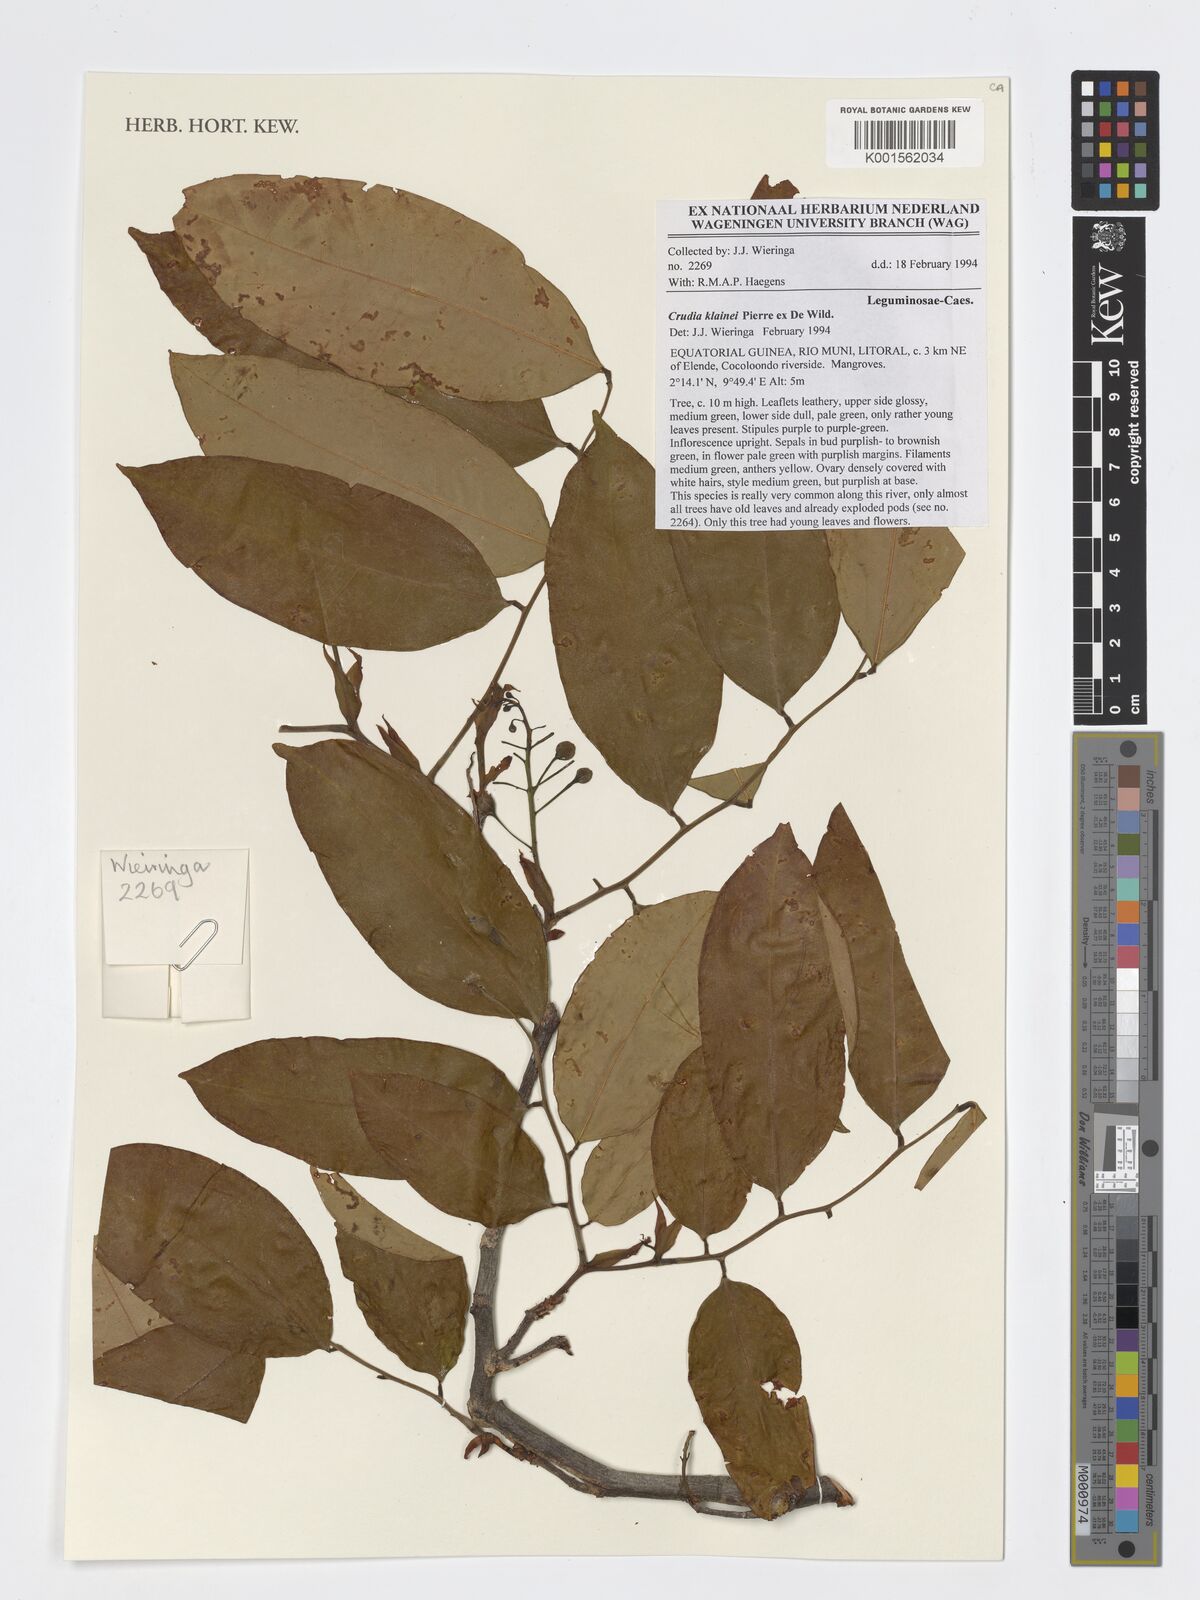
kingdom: Plantae
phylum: Tracheophyta
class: Magnoliopsida
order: Fabales
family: Fabaceae
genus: Crudia
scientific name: Crudia klainei
